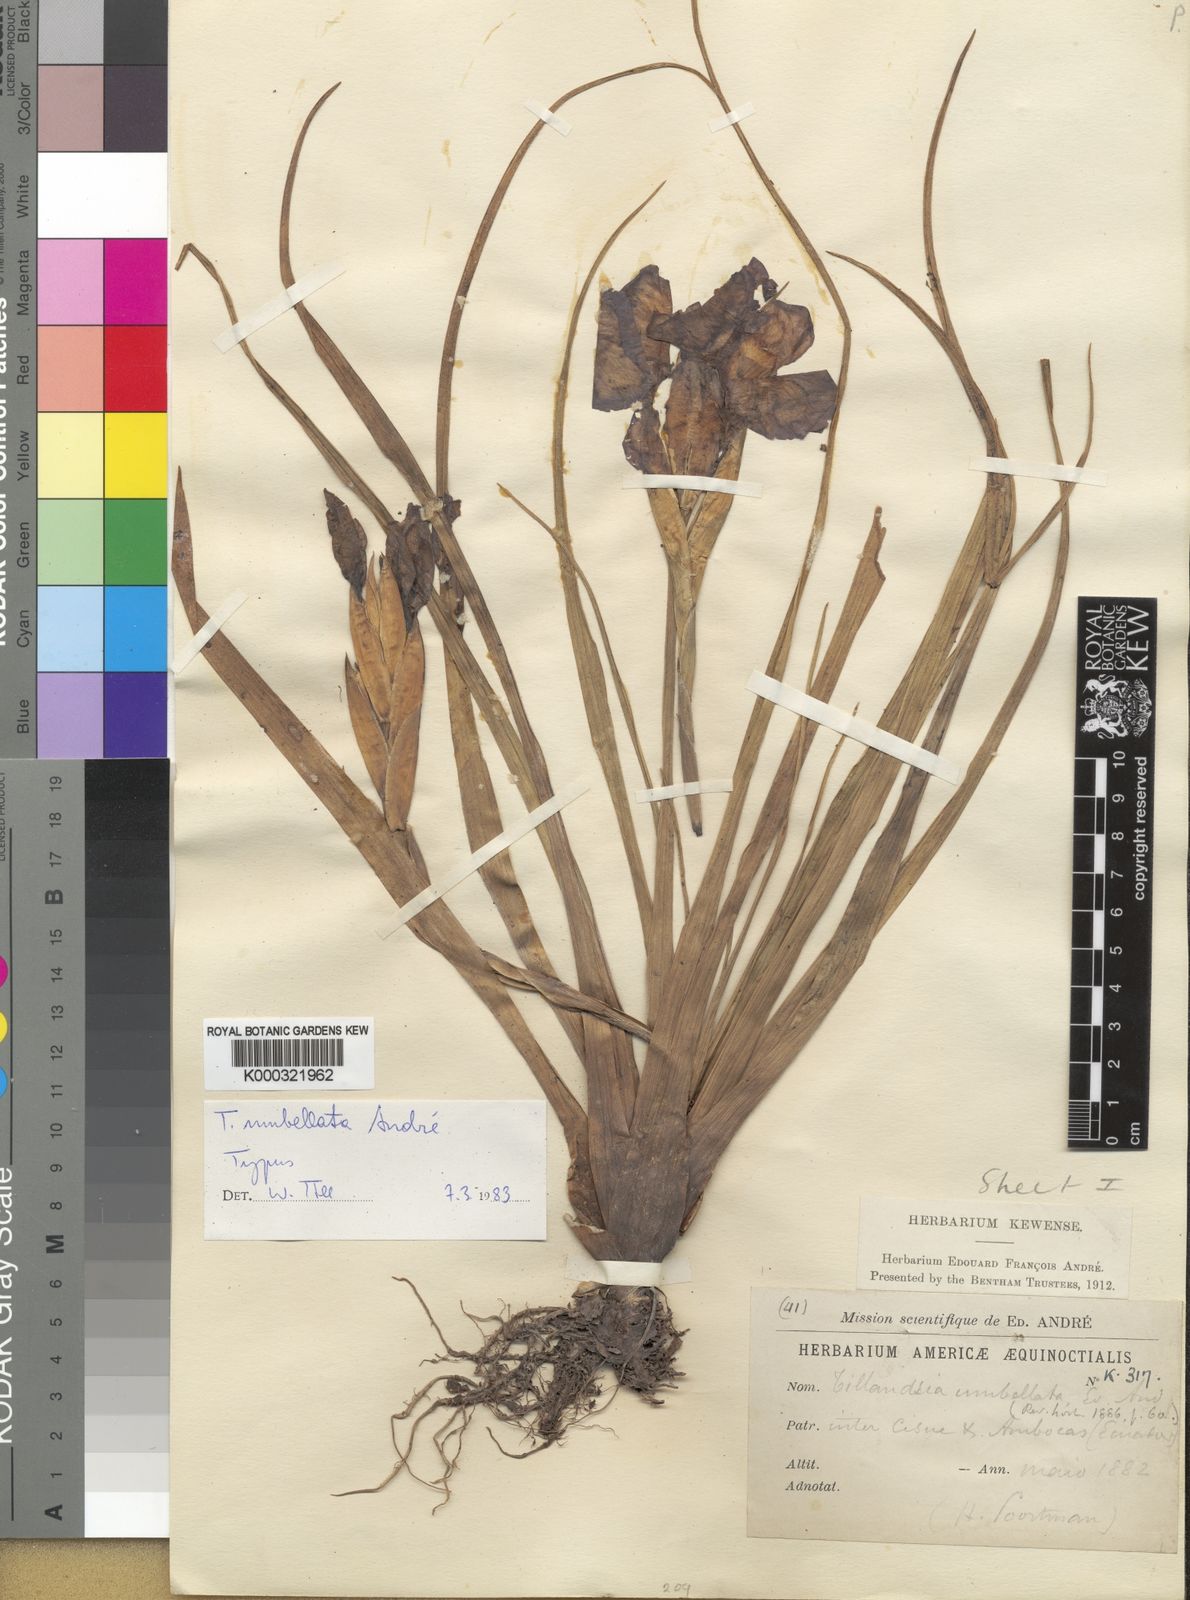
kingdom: Plantae
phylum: Tracheophyta
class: Liliopsida
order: Poales
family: Bromeliaceae
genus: Tillandsia
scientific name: Tillandsia
